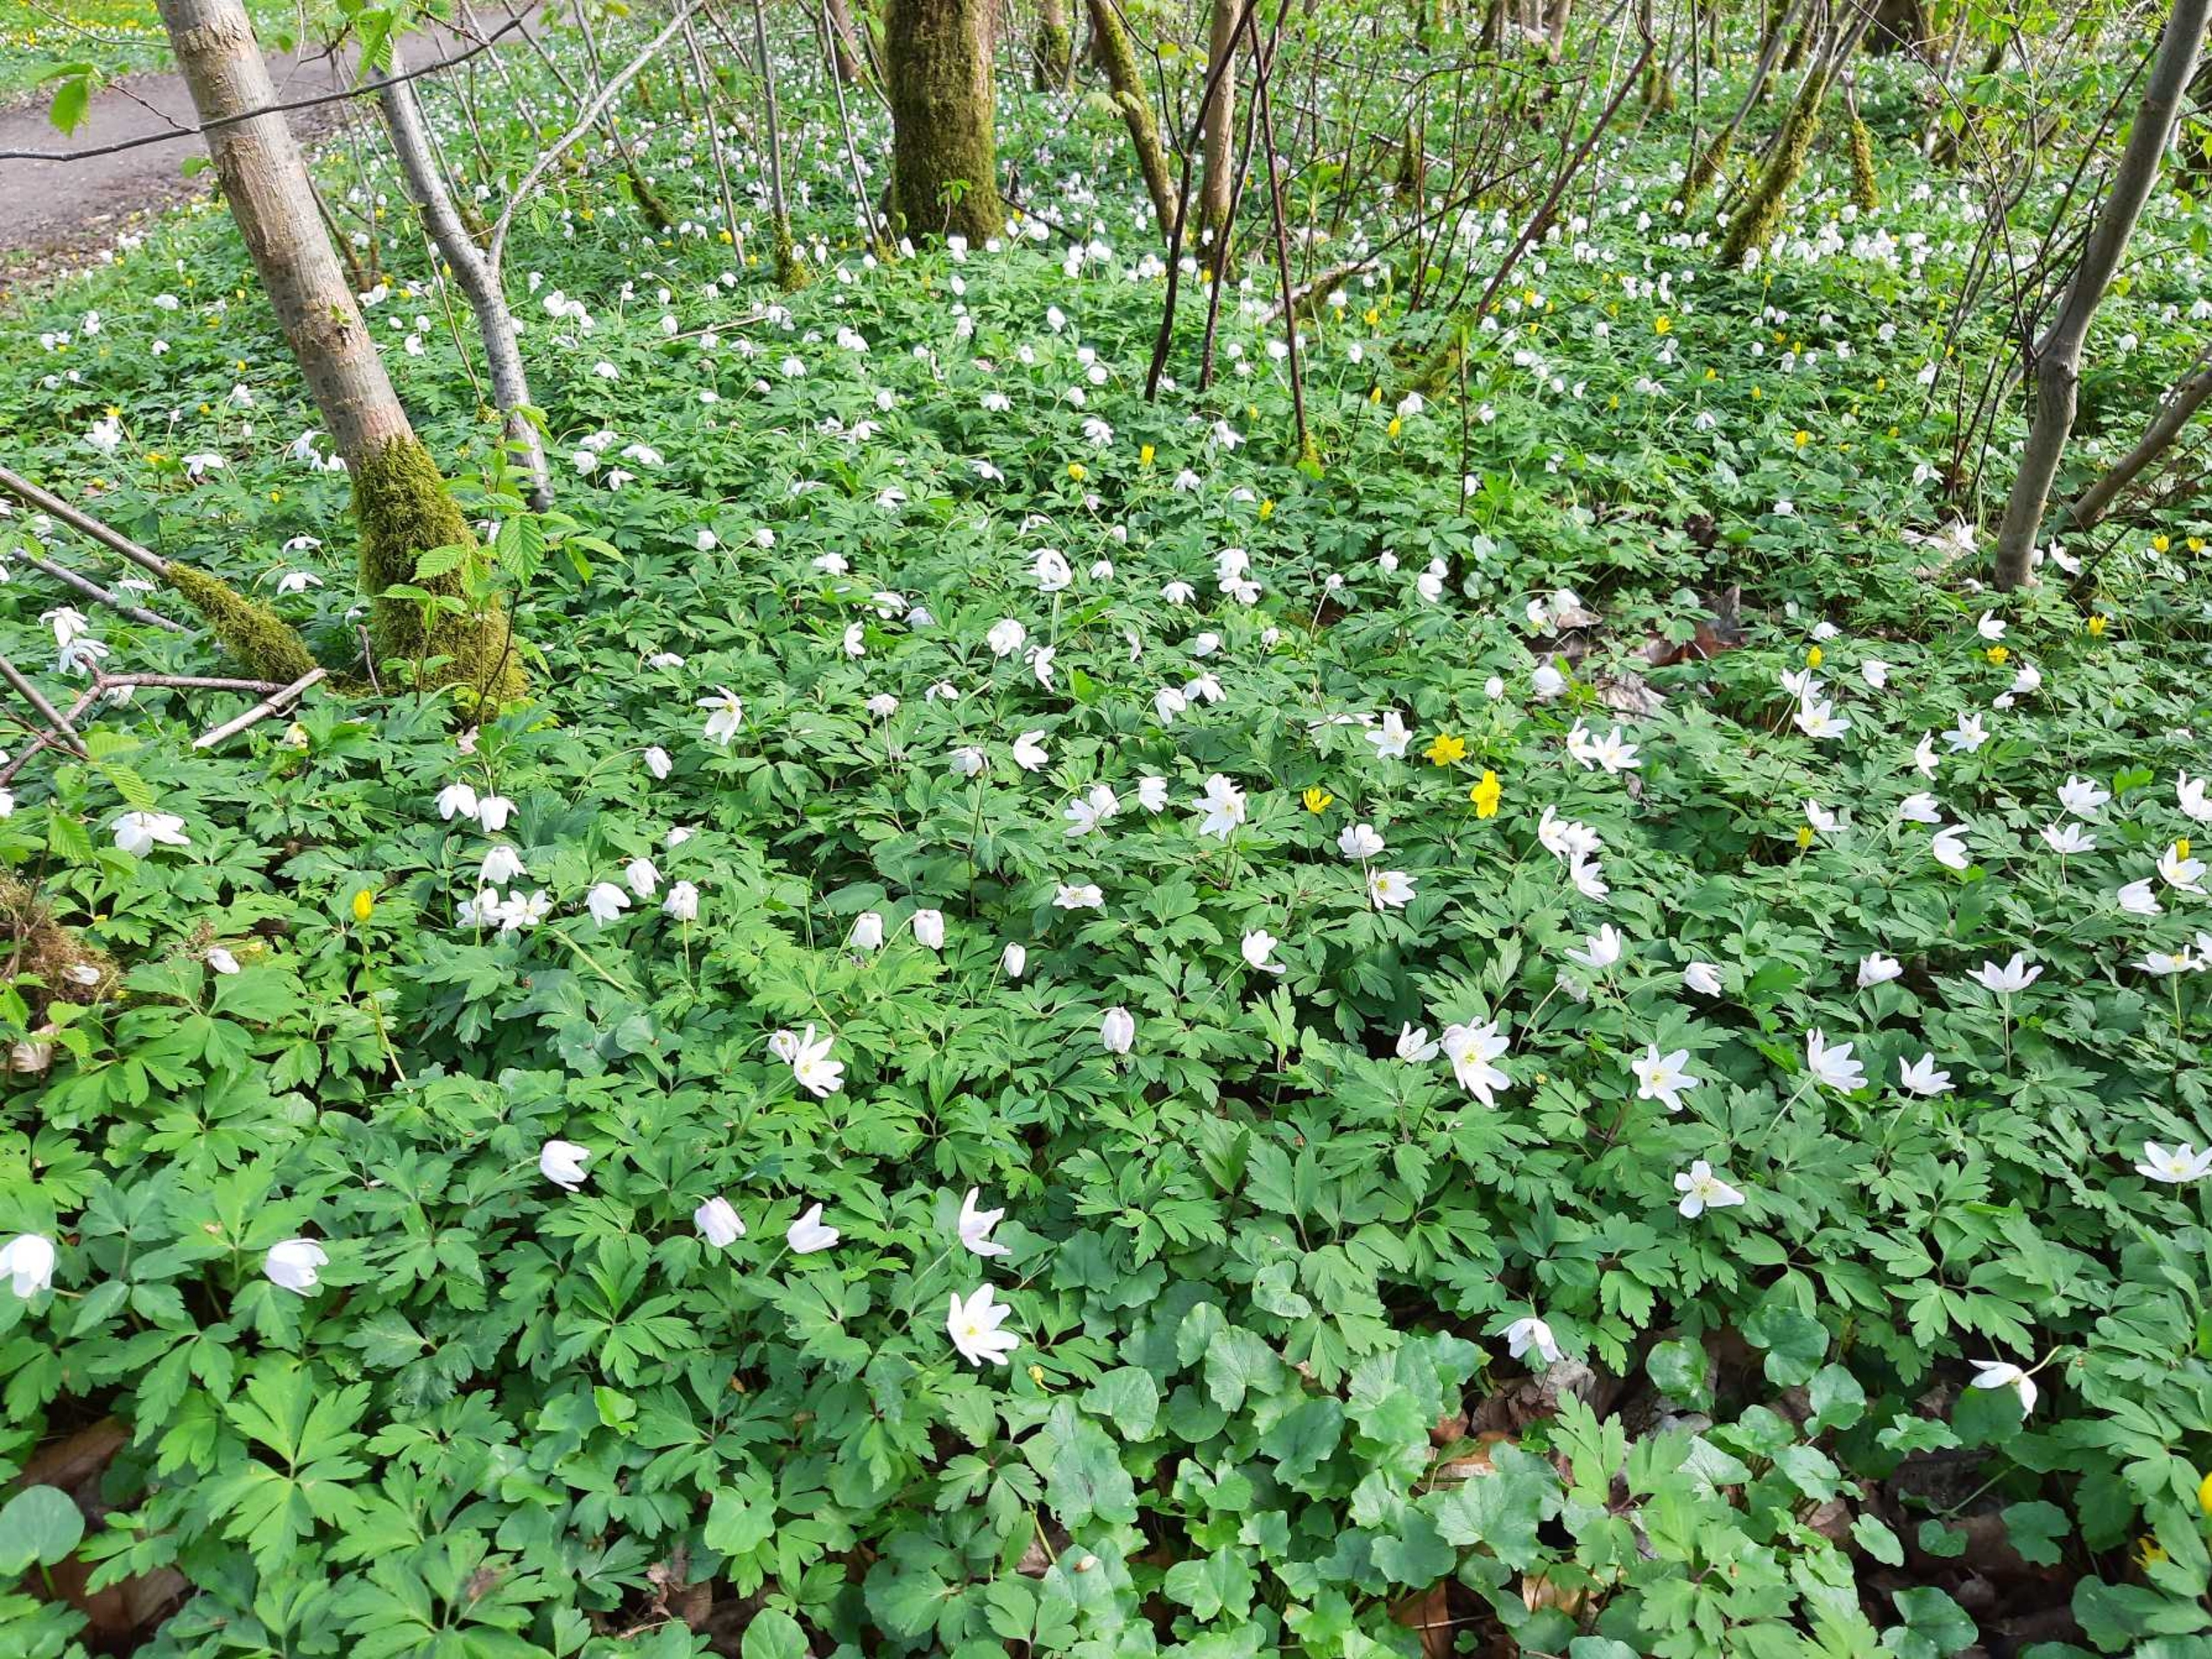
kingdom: Plantae
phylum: Tracheophyta
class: Magnoliopsida
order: Ranunculales
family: Ranunculaceae
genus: Anemone
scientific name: Anemone nemorosa
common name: Hvid anemone
